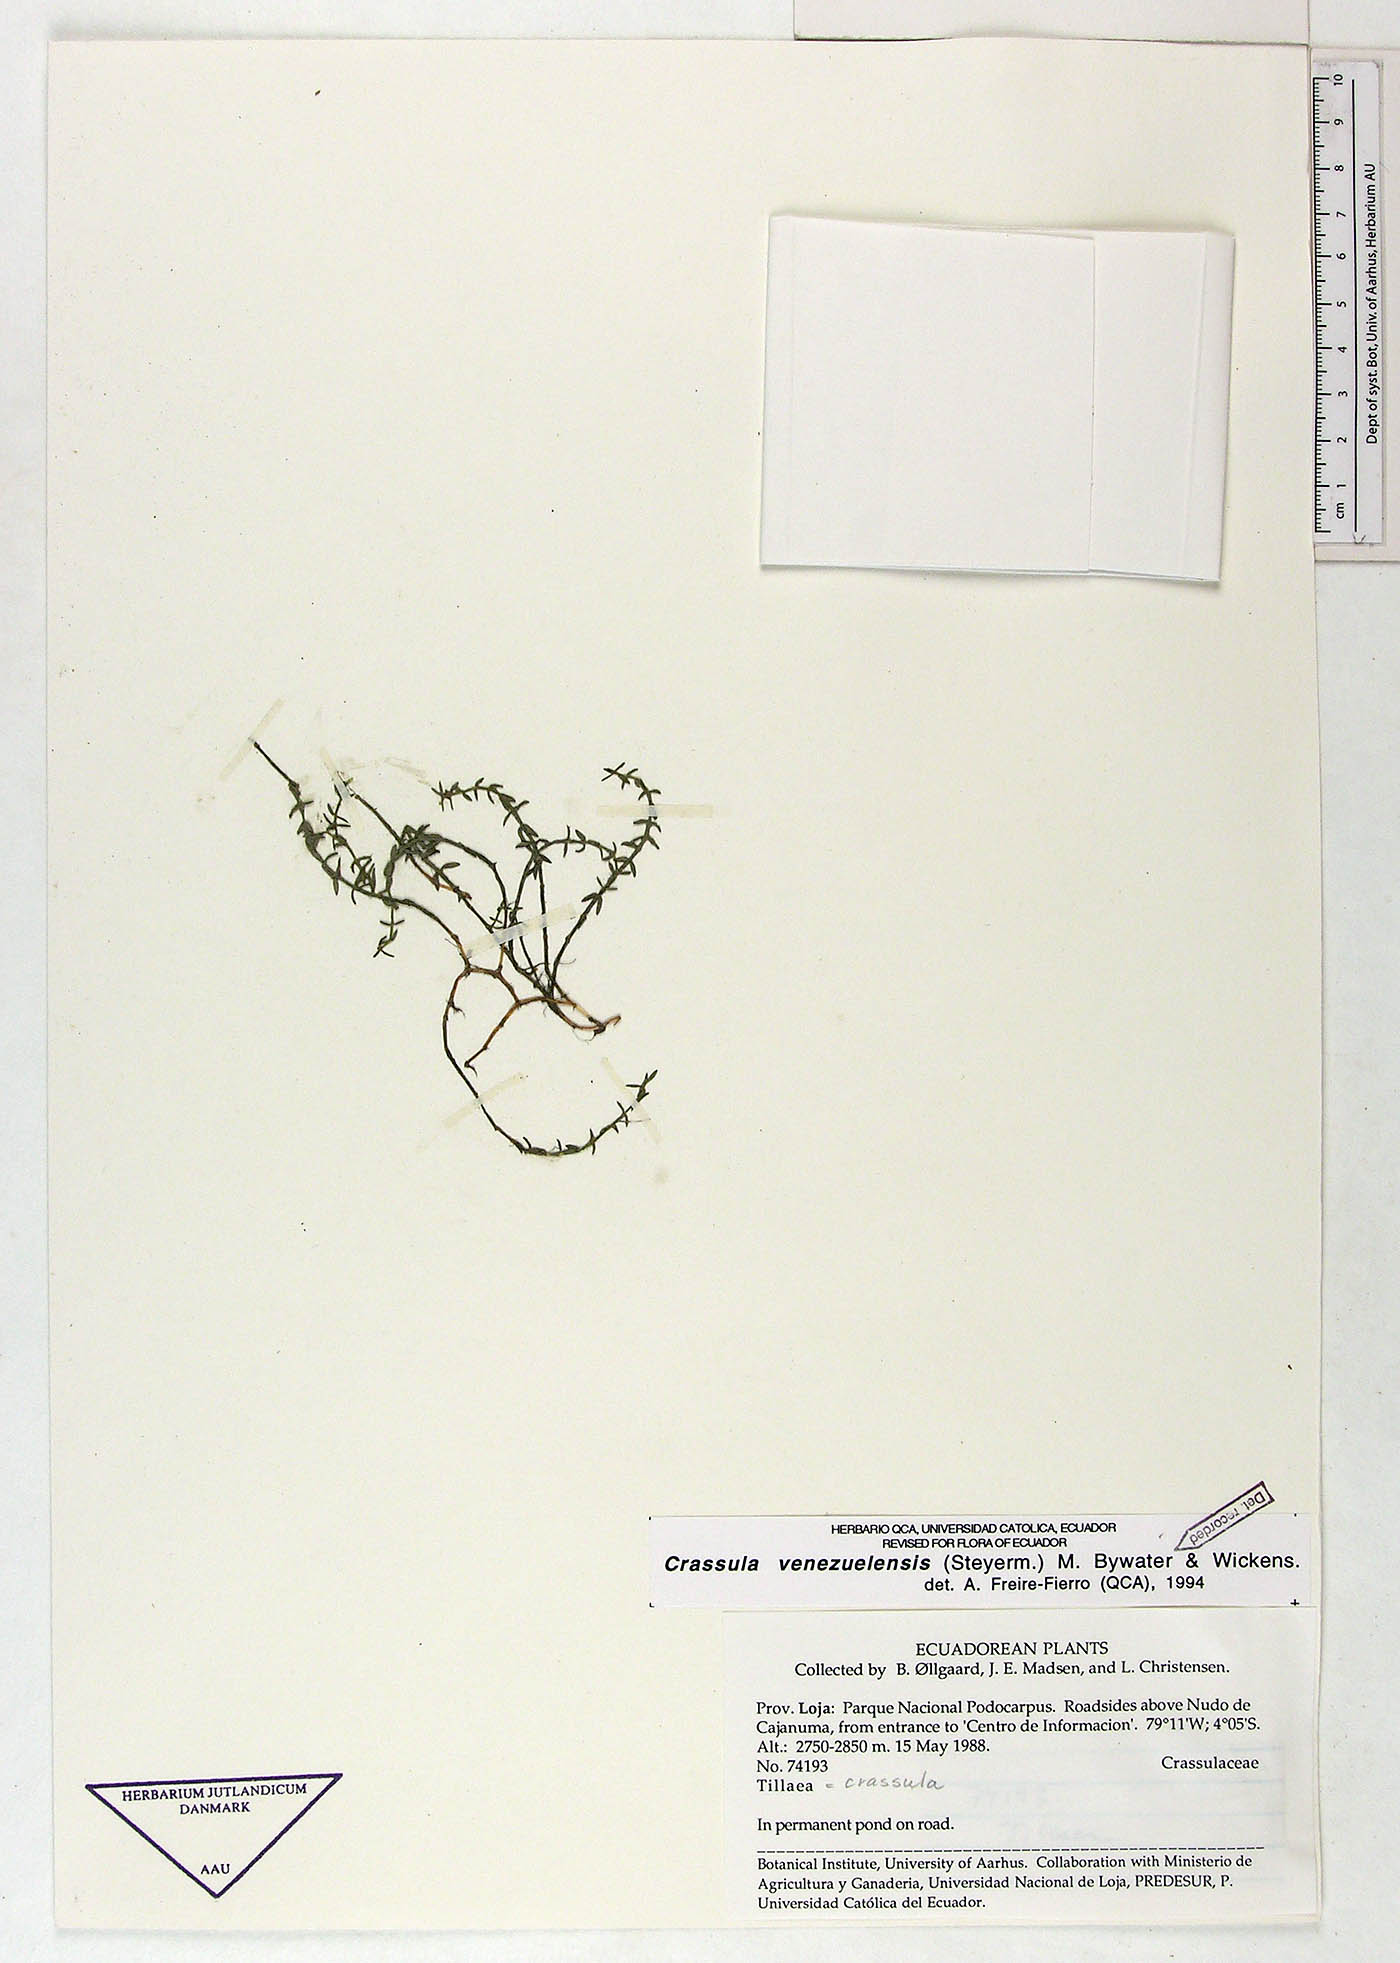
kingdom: Plantae
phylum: Tracheophyta
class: Magnoliopsida
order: Saxifragales
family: Crassulaceae
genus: Crassula
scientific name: Crassula venezuelensis
